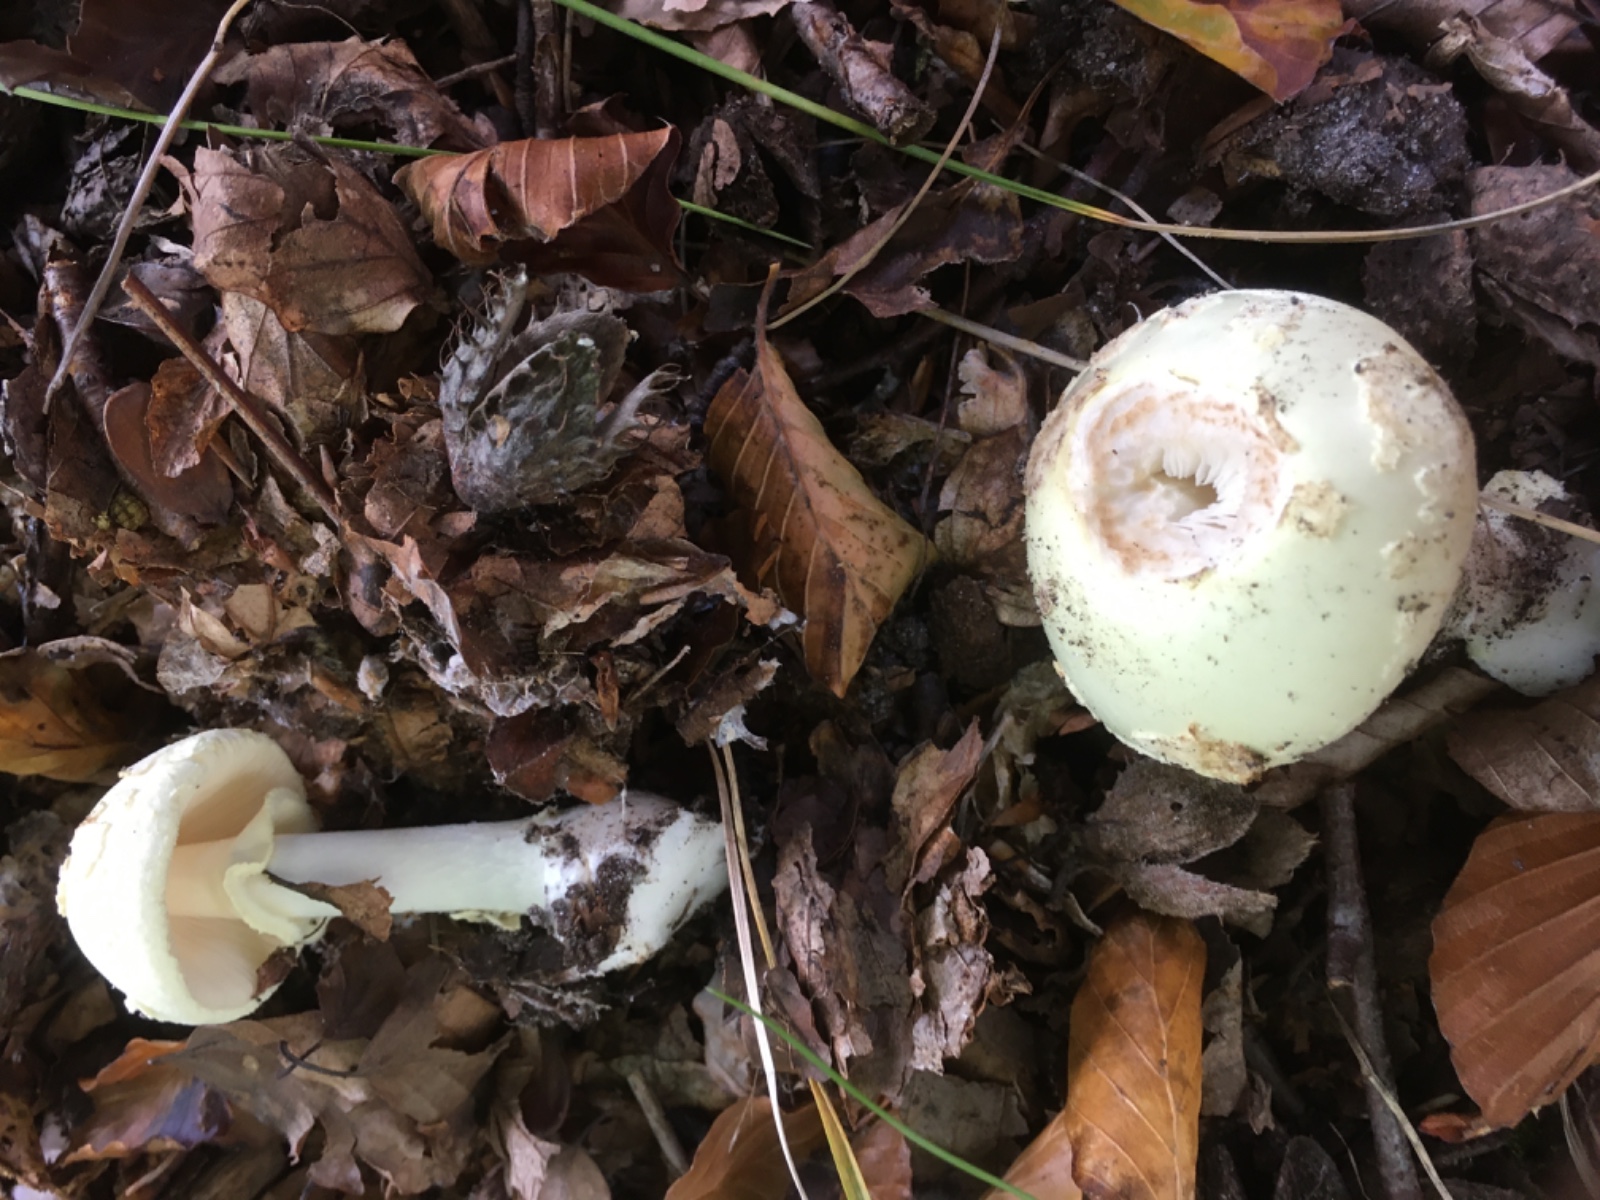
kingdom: Fungi
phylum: Basidiomycota
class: Agaricomycetes
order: Agaricales
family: Amanitaceae
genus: Amanita
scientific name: Amanita citrina
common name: kugleknoldet fluesvamp
